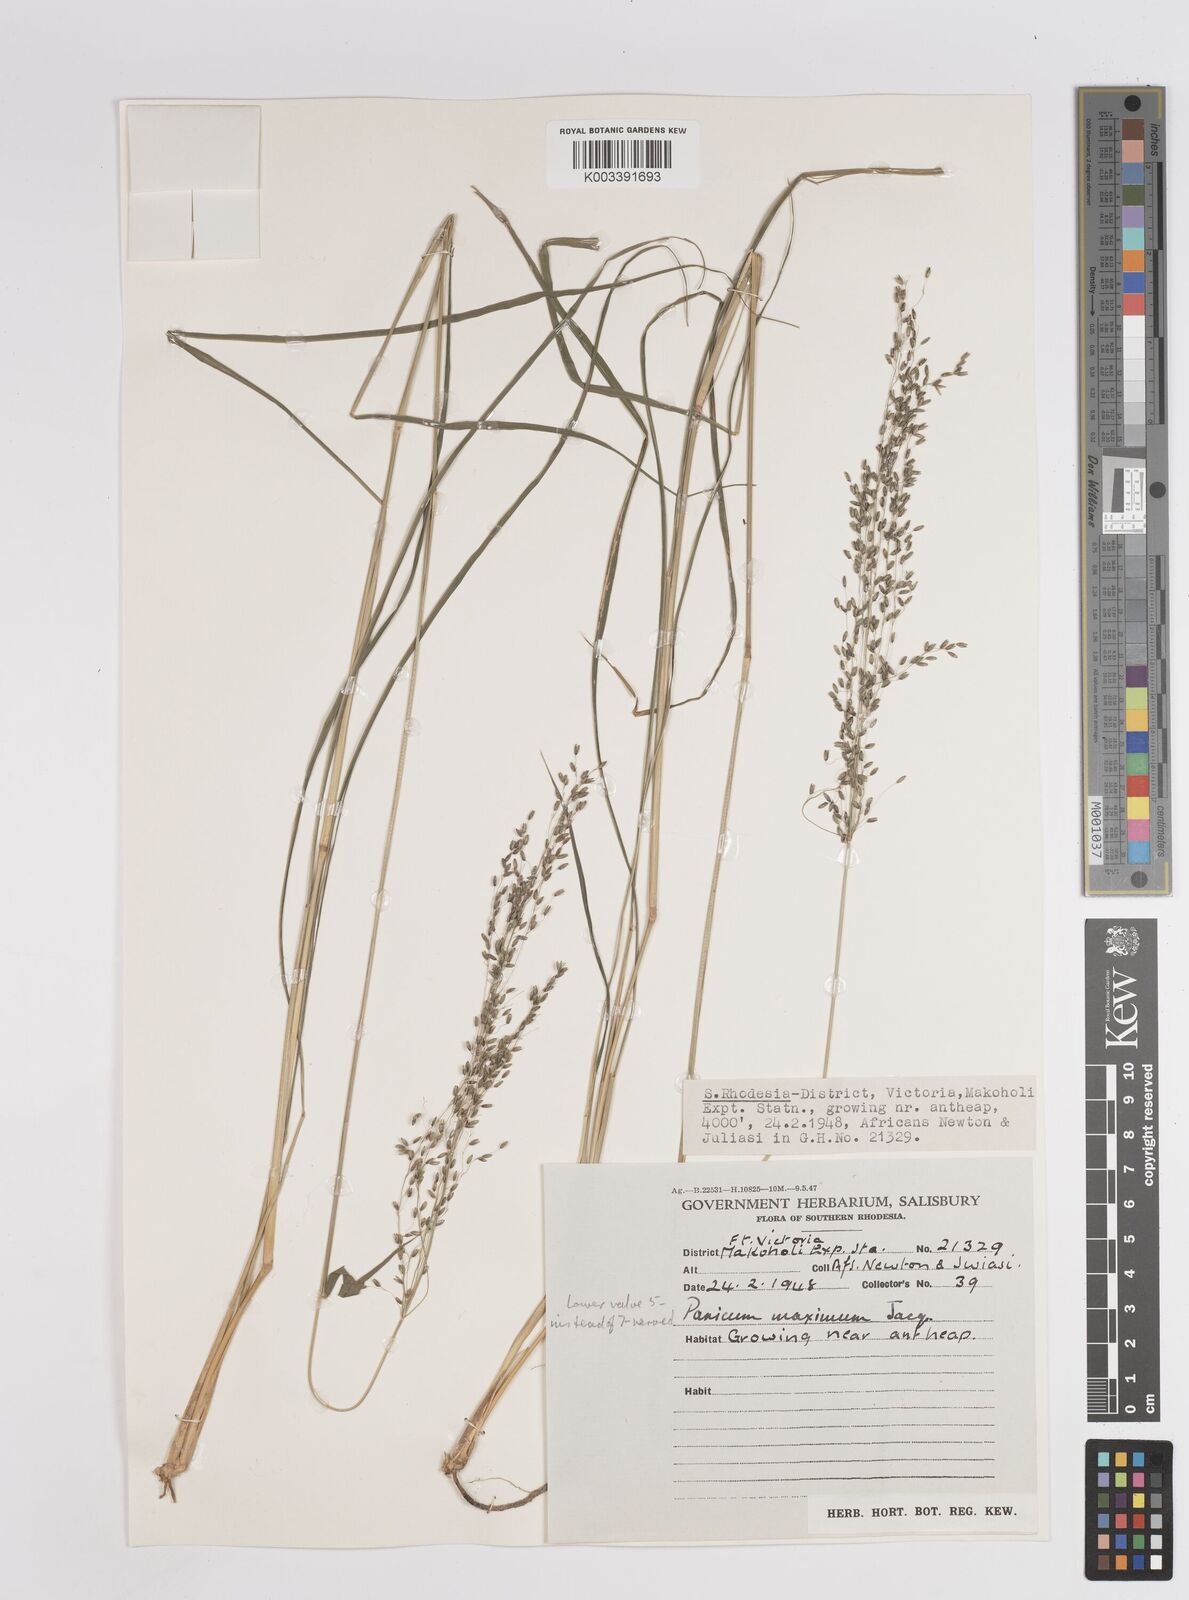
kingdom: Plantae
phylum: Tracheophyta
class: Liliopsida
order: Poales
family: Poaceae
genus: Megathyrsus
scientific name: Megathyrsus maximus
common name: Guineagrass
